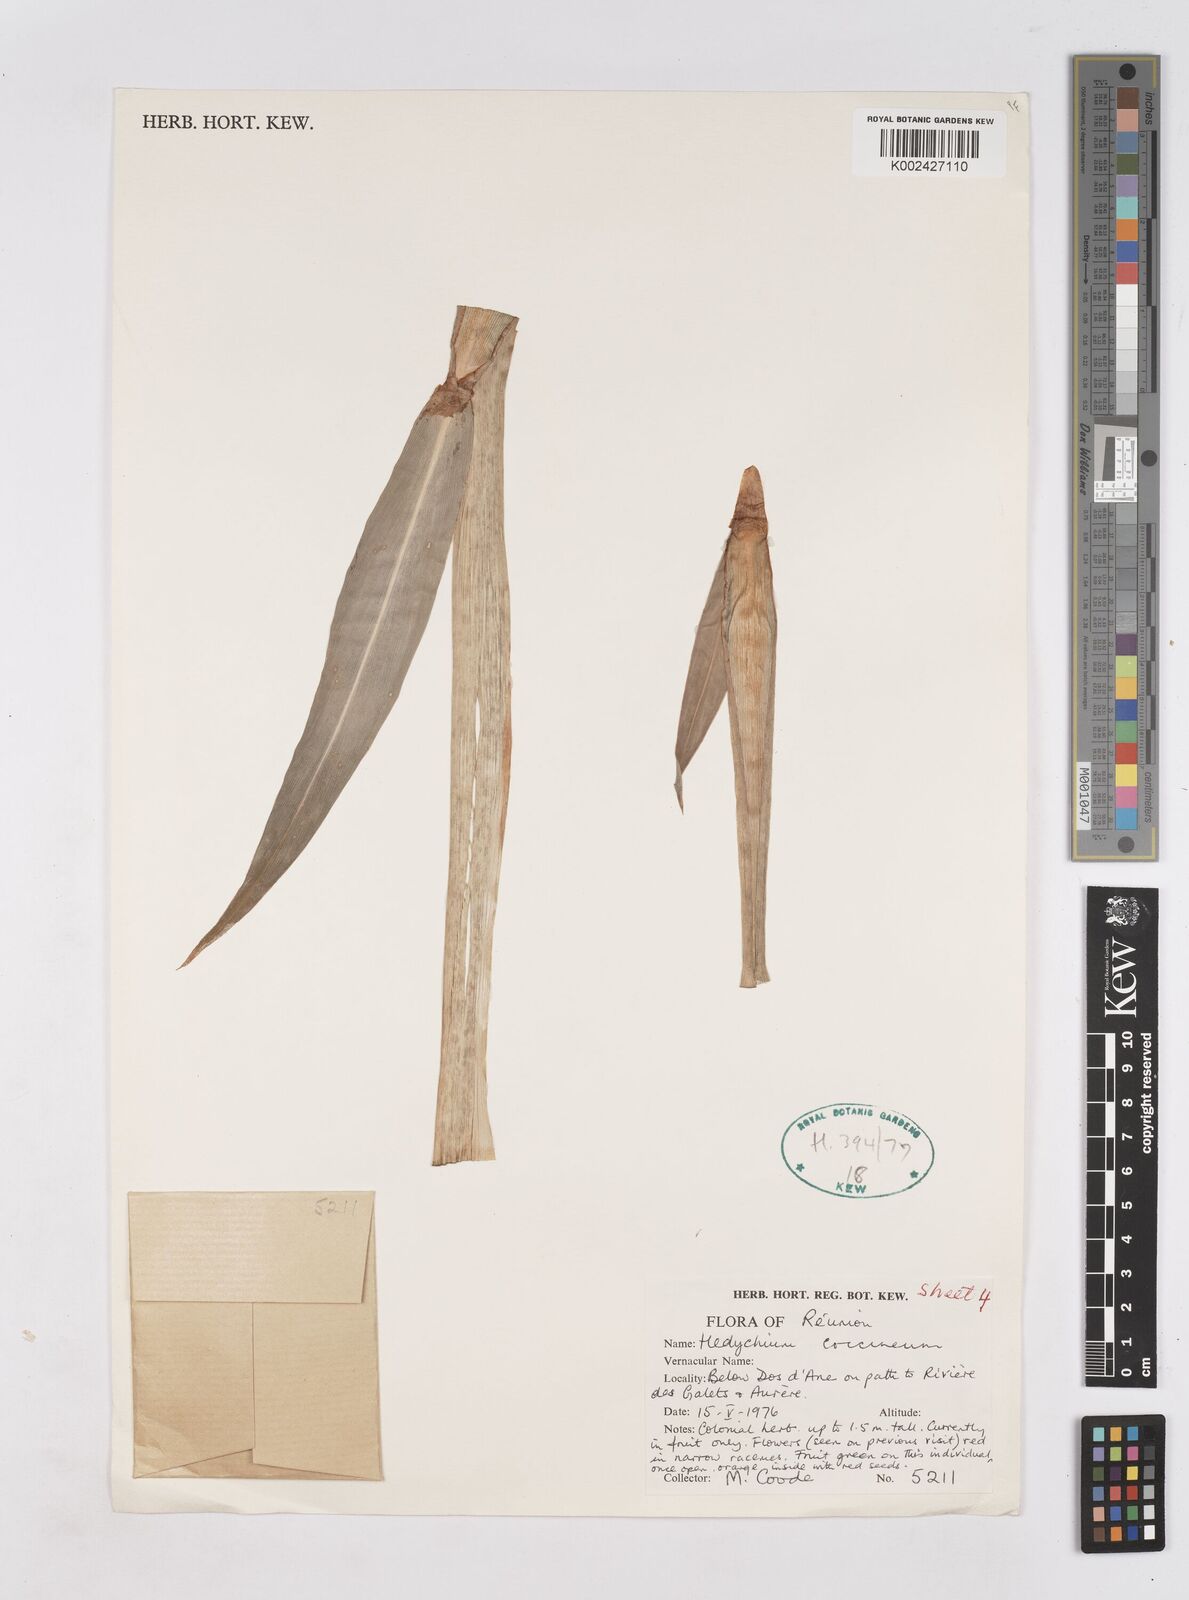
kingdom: Plantae
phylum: Tracheophyta
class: Liliopsida
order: Zingiberales
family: Zingiberaceae
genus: Hedychium
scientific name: Hedychium coccineum
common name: Red ginger-lily
